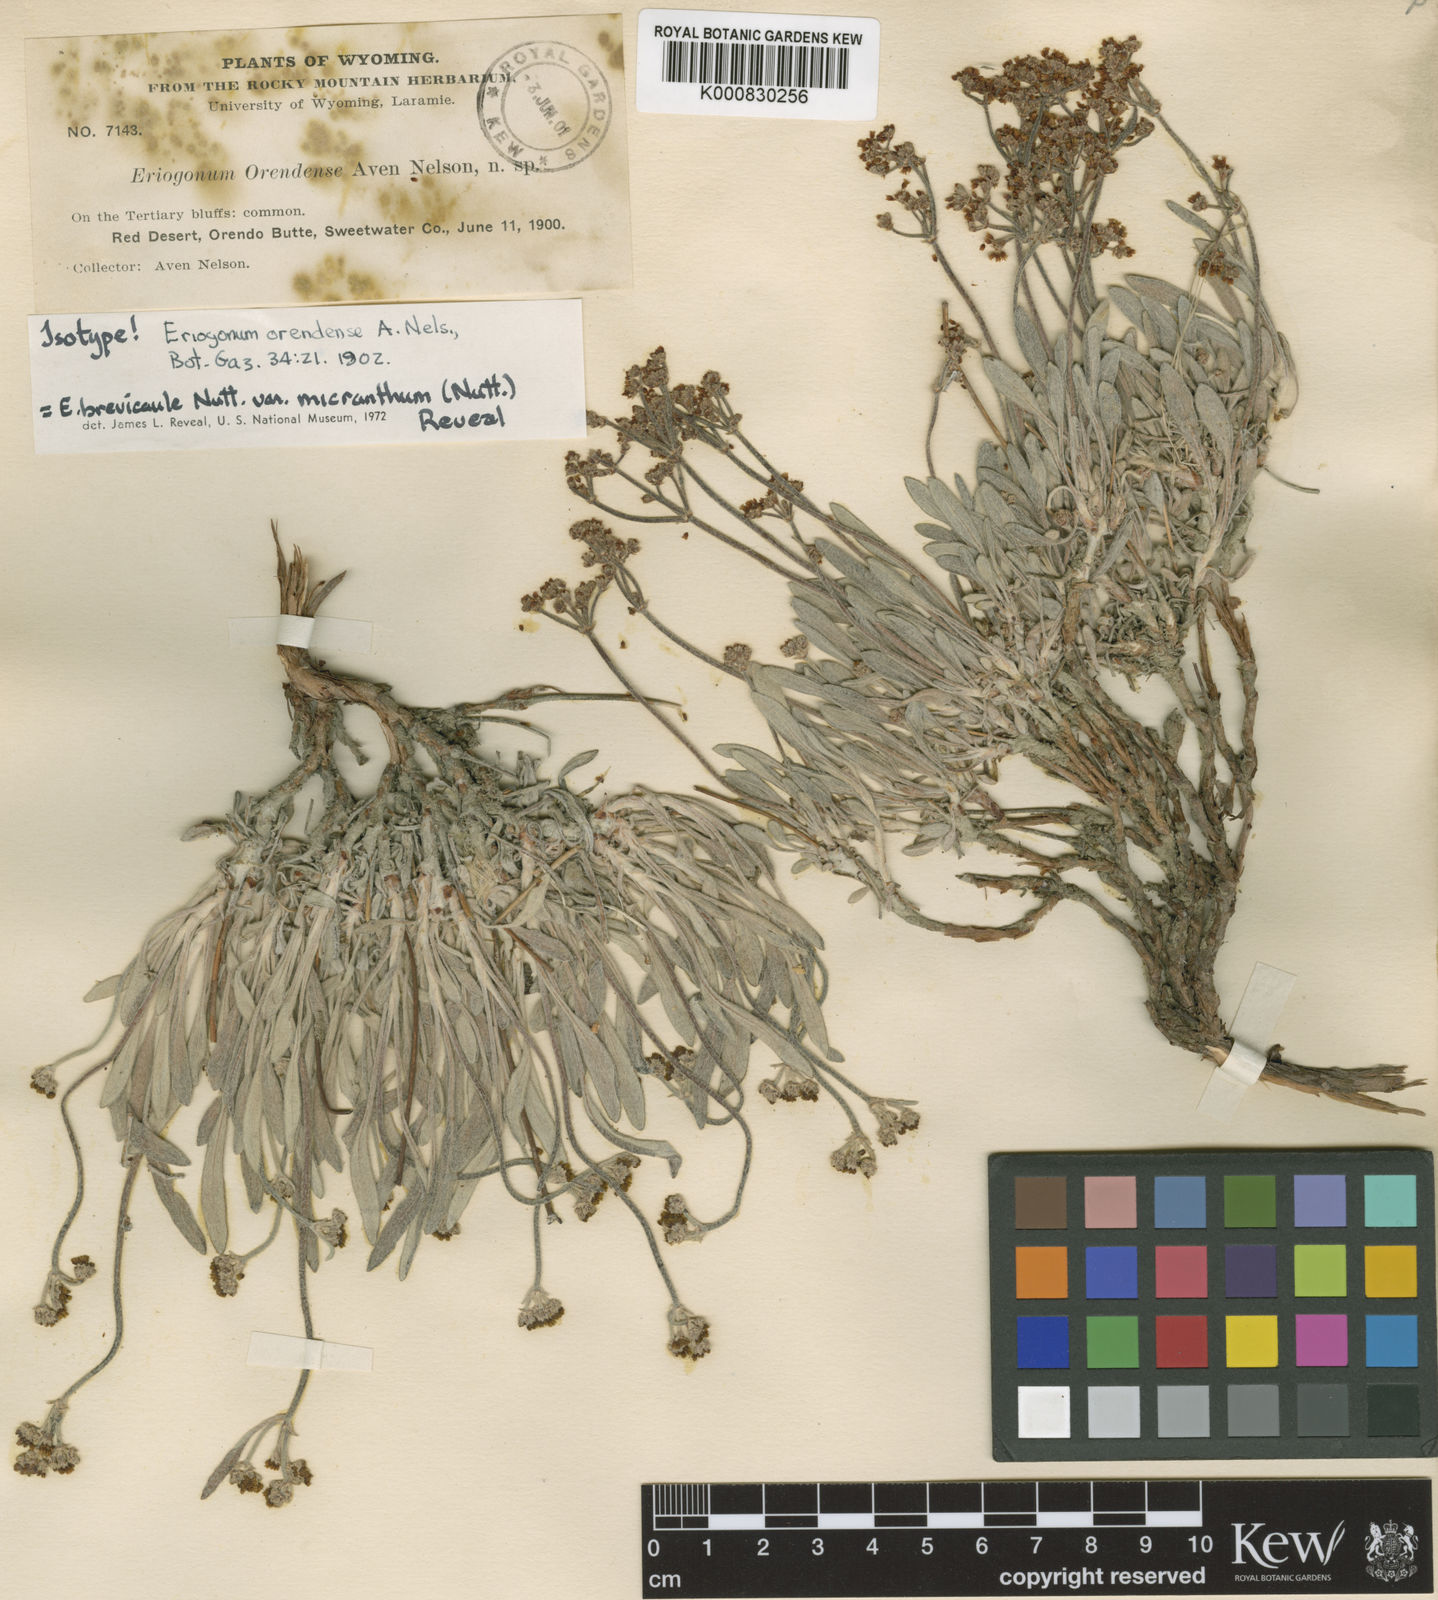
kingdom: Plantae
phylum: Tracheophyta
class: Magnoliopsida
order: Caryophyllales
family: Polygonaceae
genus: Eriogonum
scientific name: Eriogonum brevicaule
